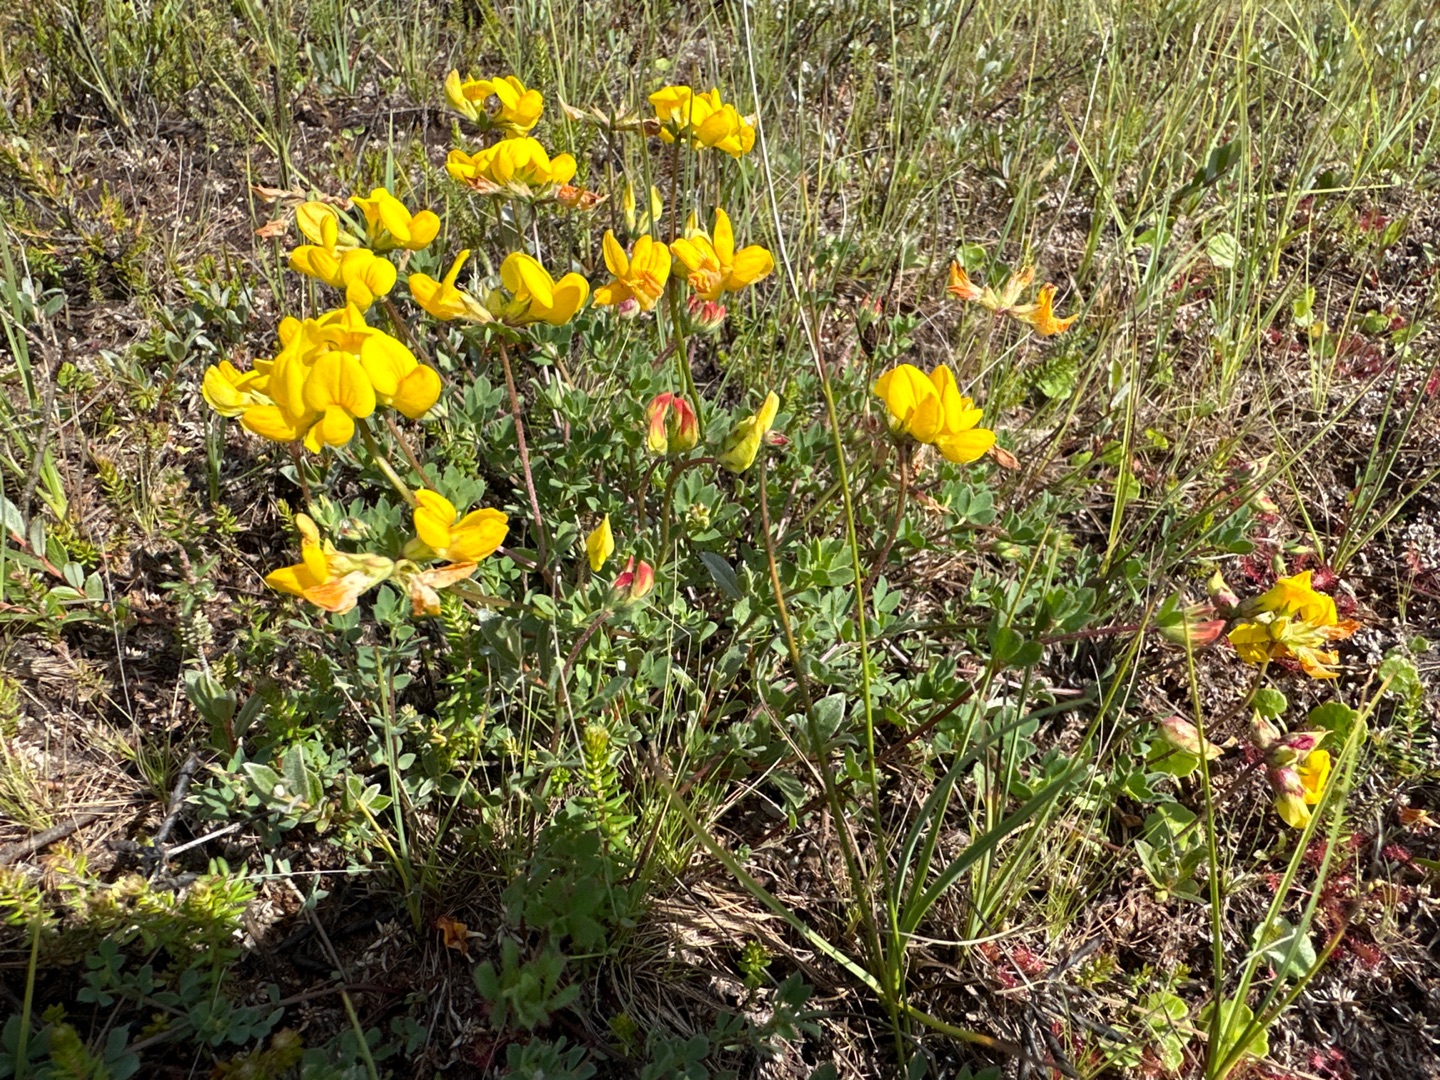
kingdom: Plantae
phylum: Tracheophyta
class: Magnoliopsida
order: Fabales
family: Fabaceae
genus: Lotus
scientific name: Lotus corniculatus
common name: Almindelig kællingetand
